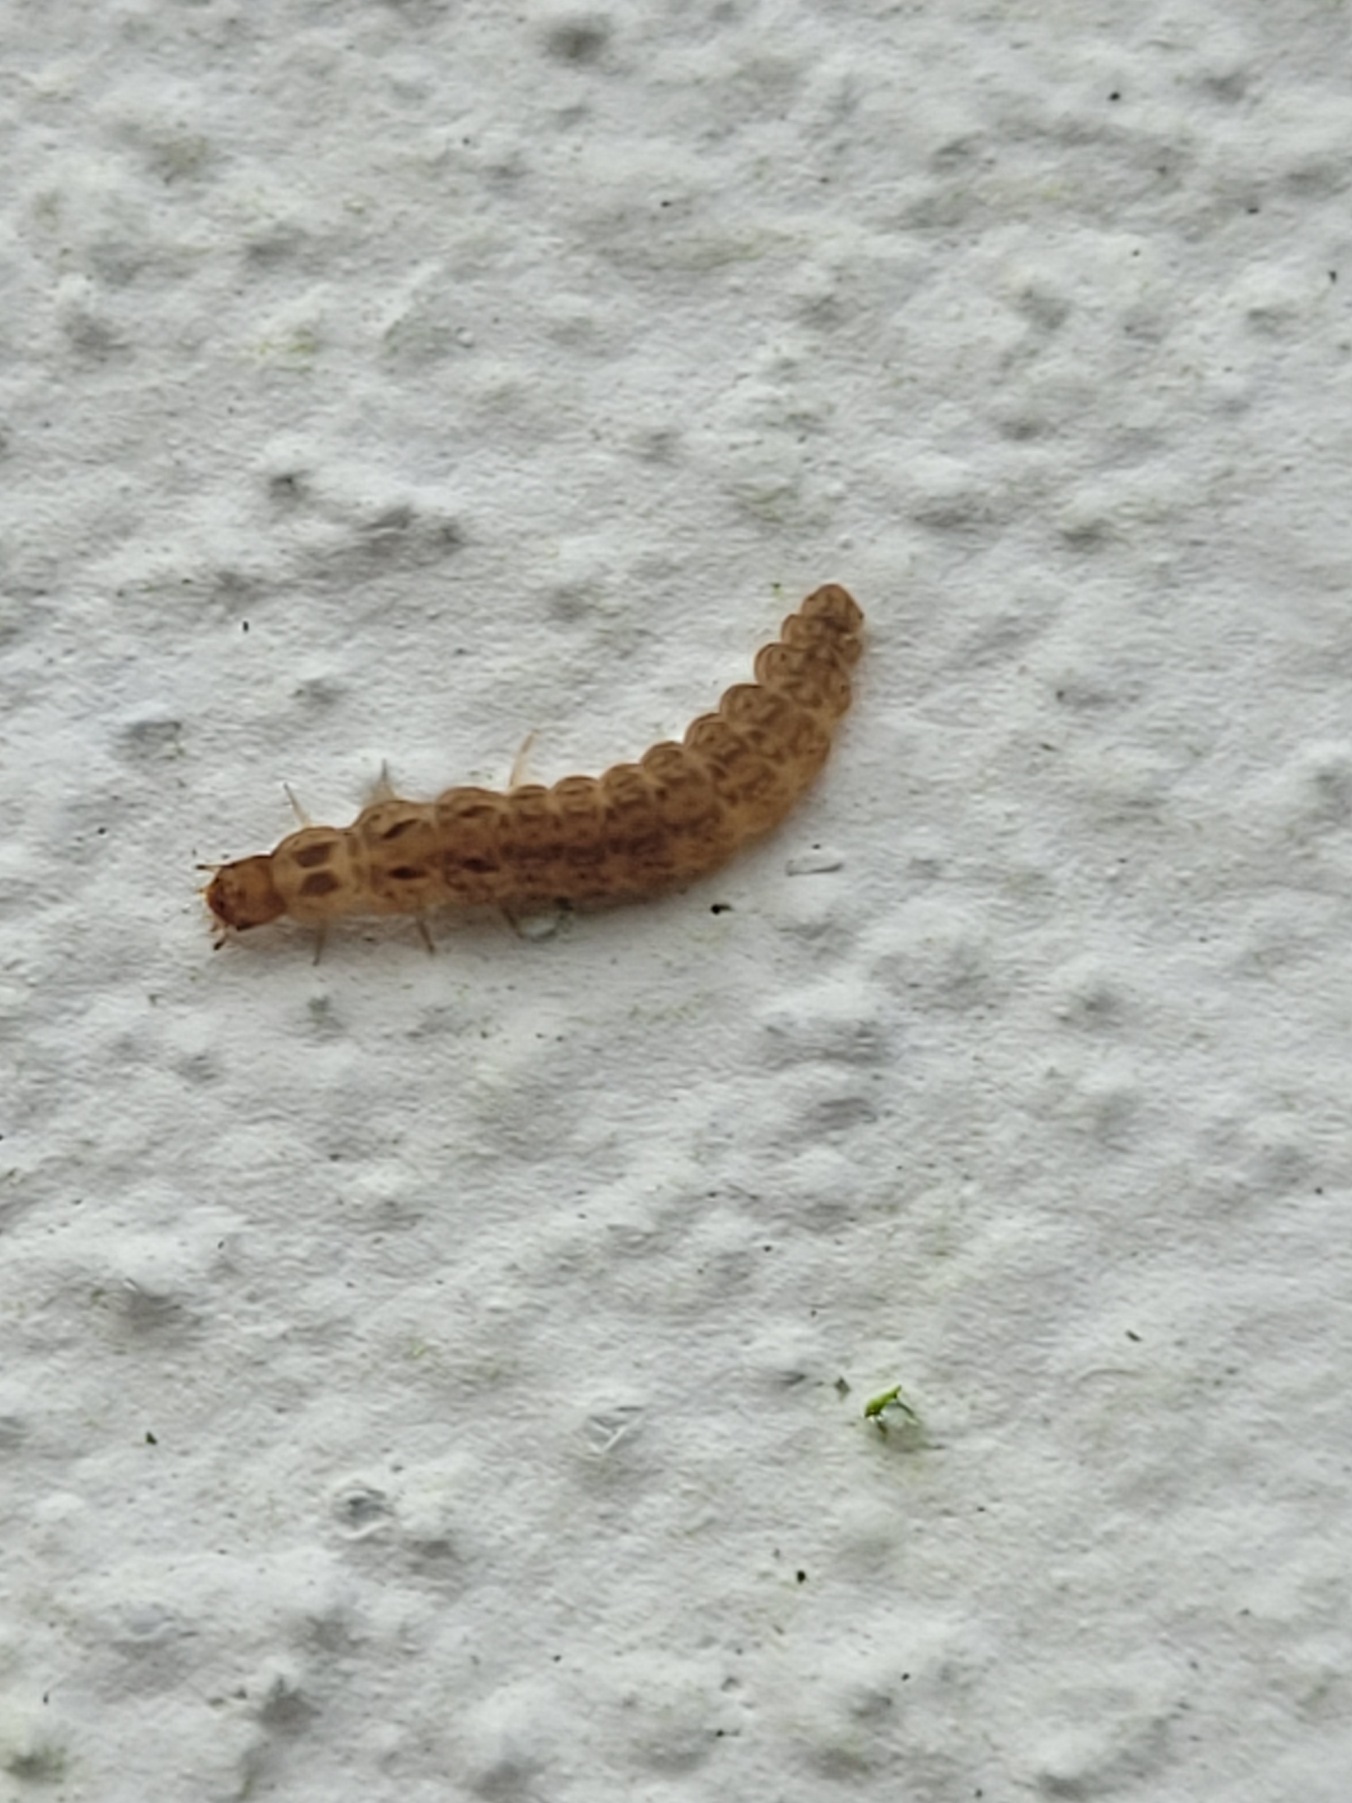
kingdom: Animalia
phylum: Arthropoda
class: Insecta
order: Coleoptera
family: Cantharidae
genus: Cantharis
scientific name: Cantharis
